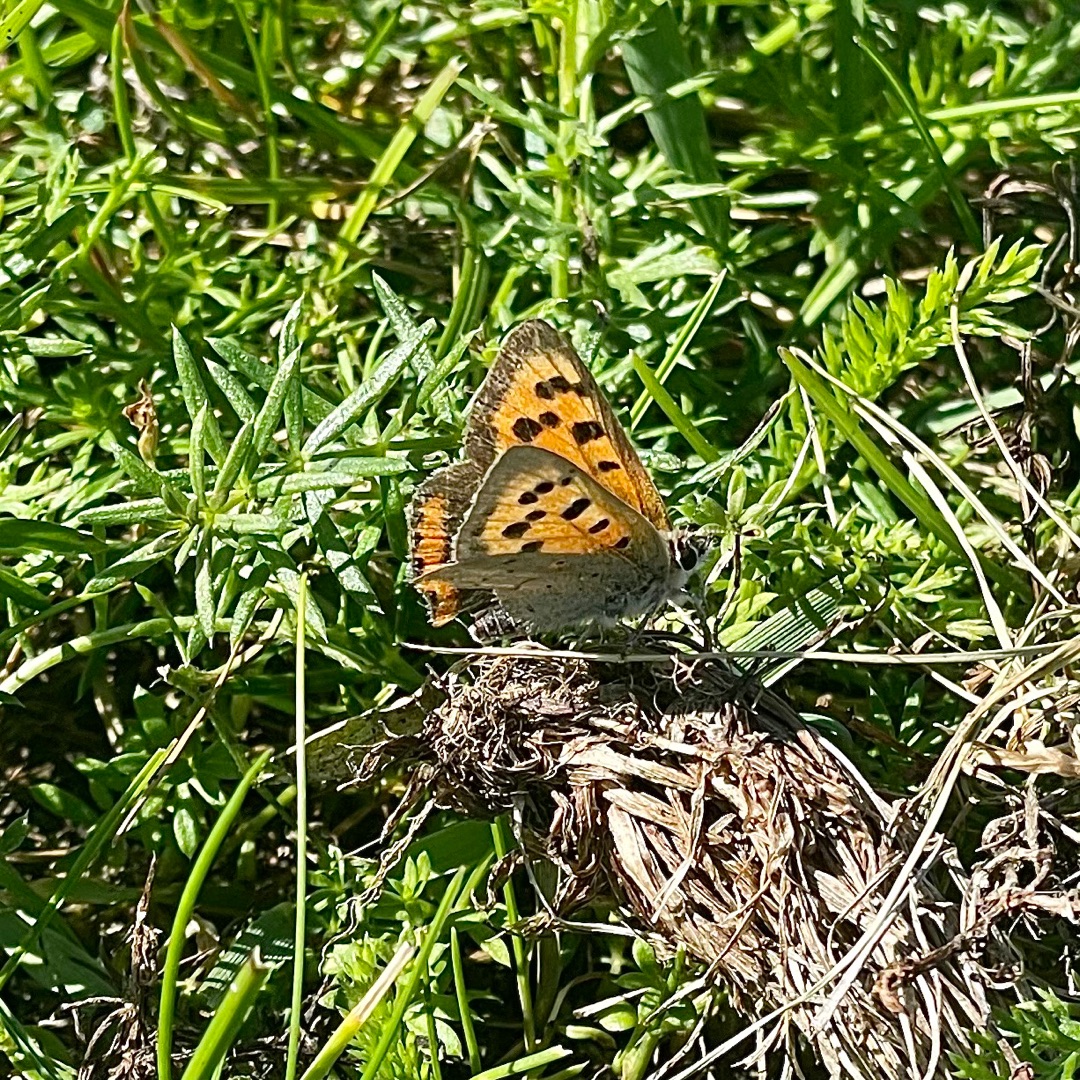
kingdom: Animalia
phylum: Arthropoda
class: Insecta
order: Lepidoptera
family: Lycaenidae
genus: Lycaena
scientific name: Lycaena phlaeas
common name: Lille ildfugl
